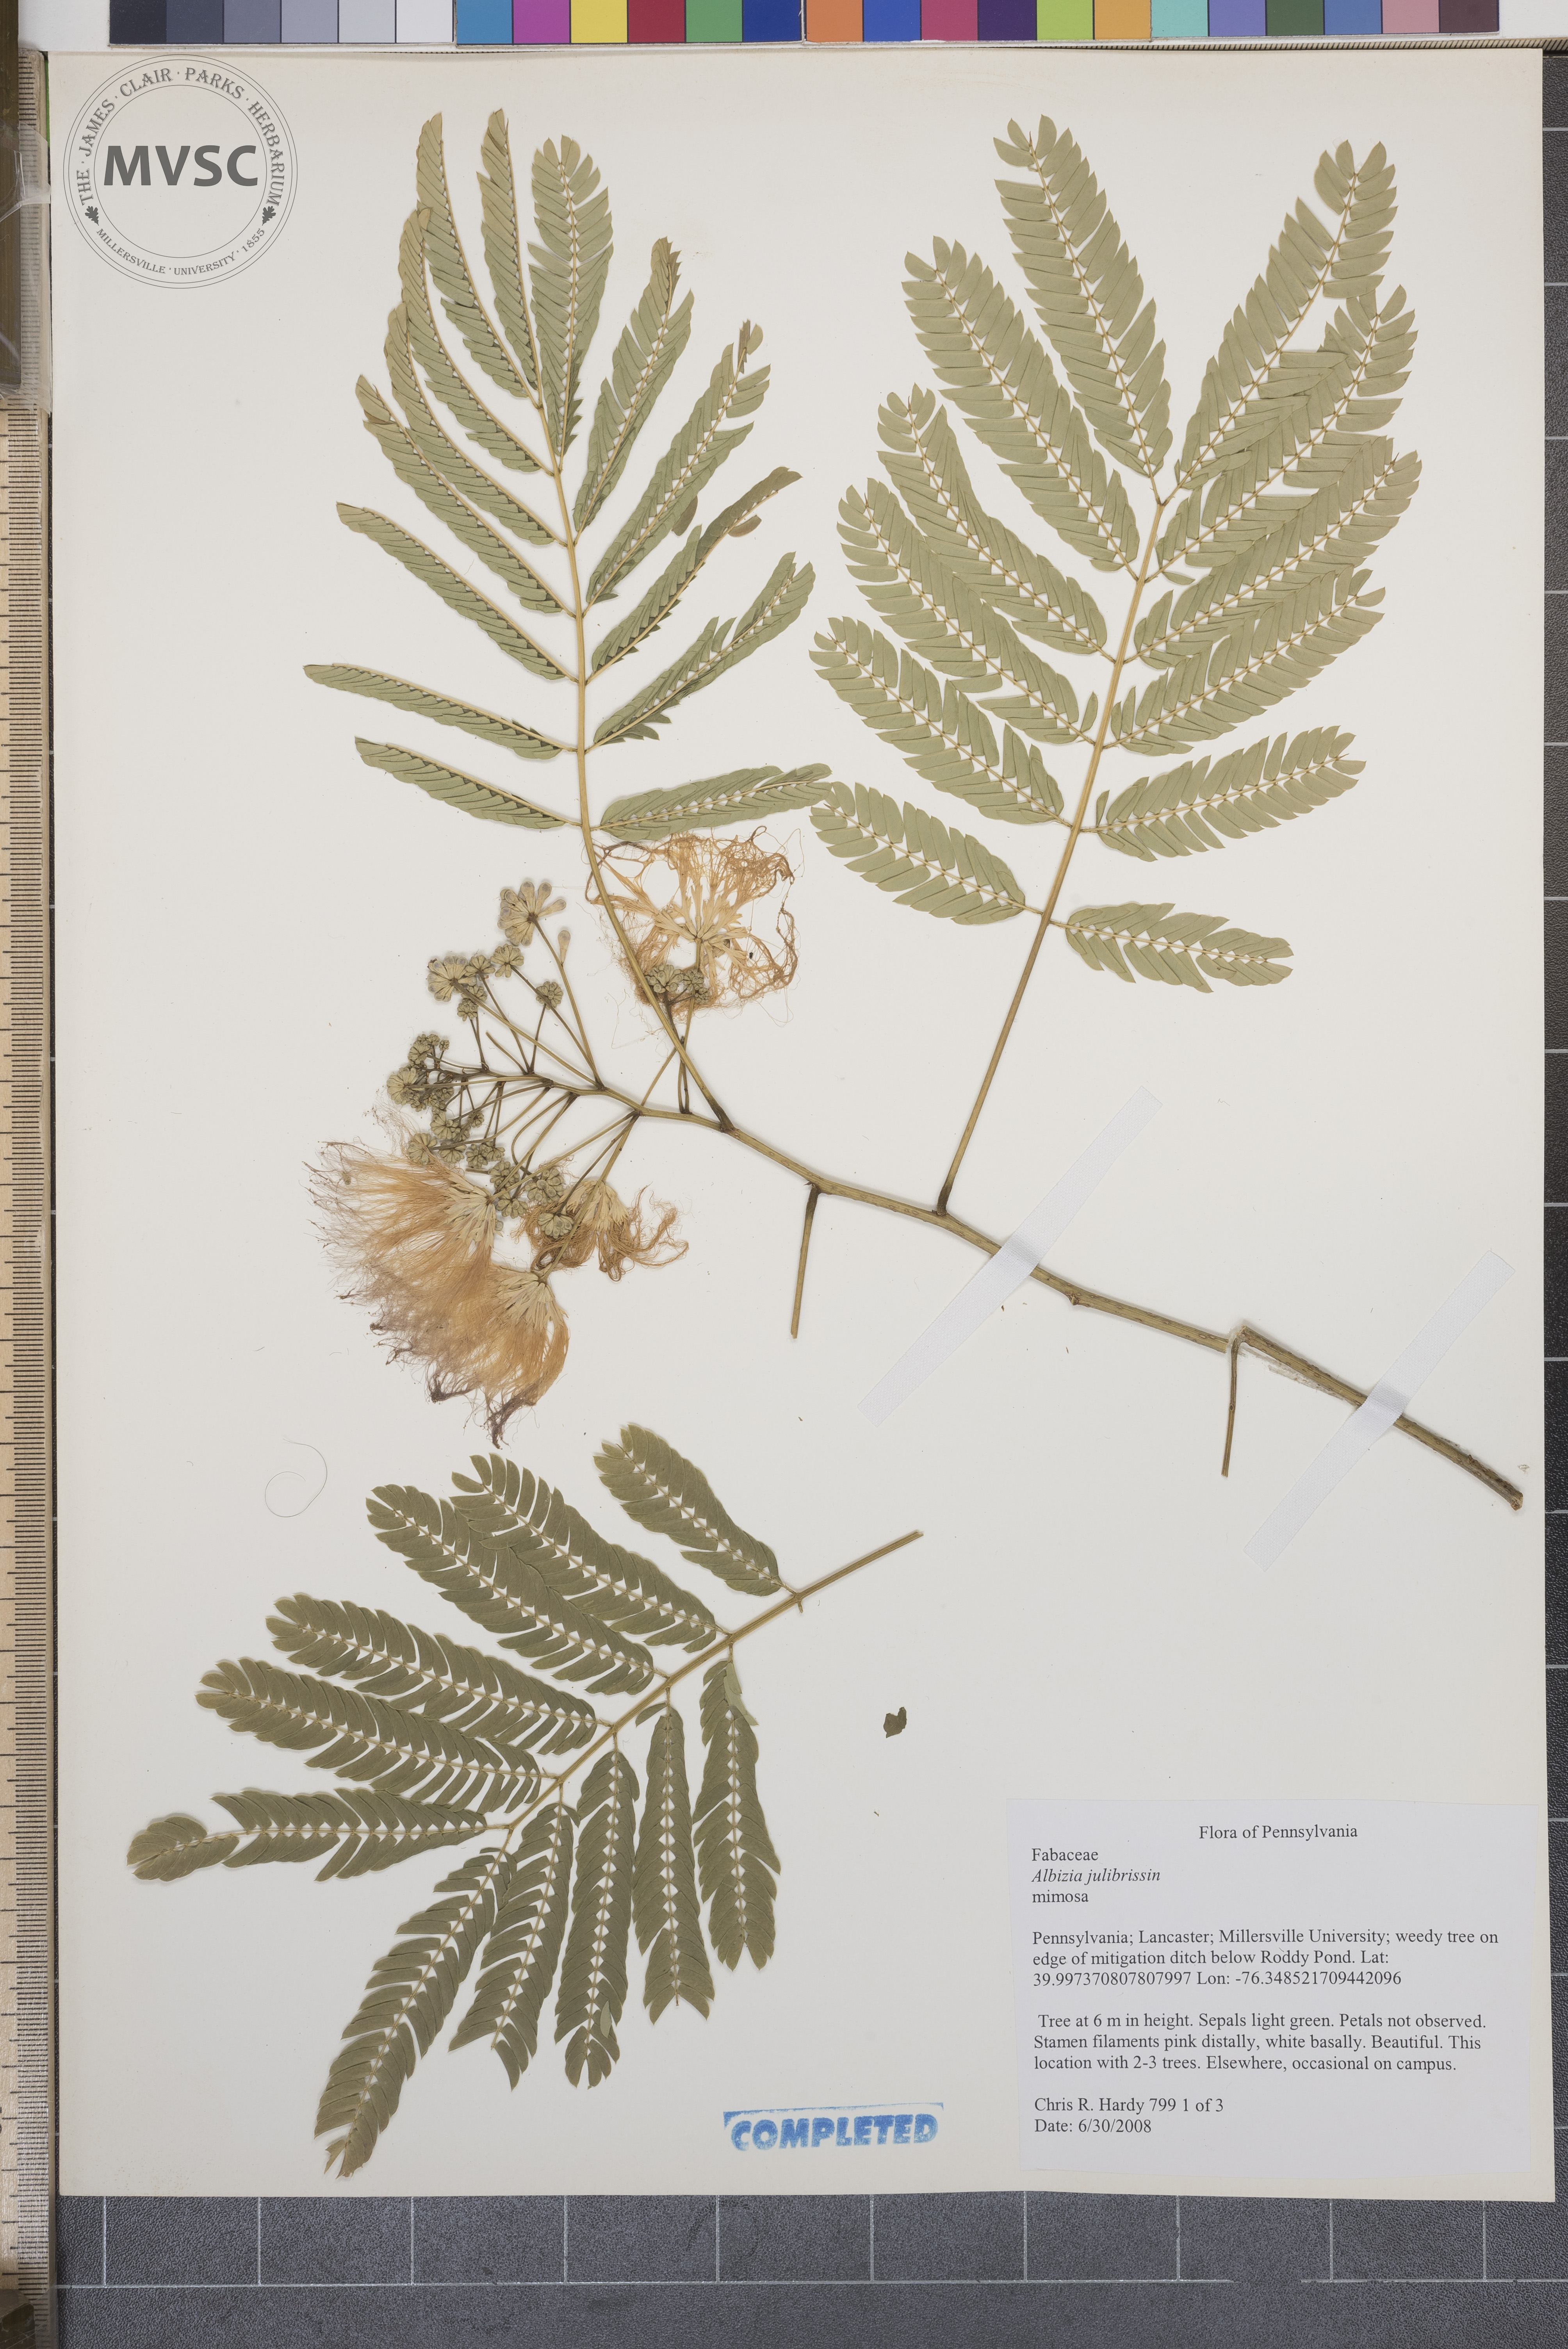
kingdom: Plantae
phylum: Tracheophyta
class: Magnoliopsida
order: Fabales
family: Fabaceae
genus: Albizia
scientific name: Albizia julibrissin
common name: mimosa
